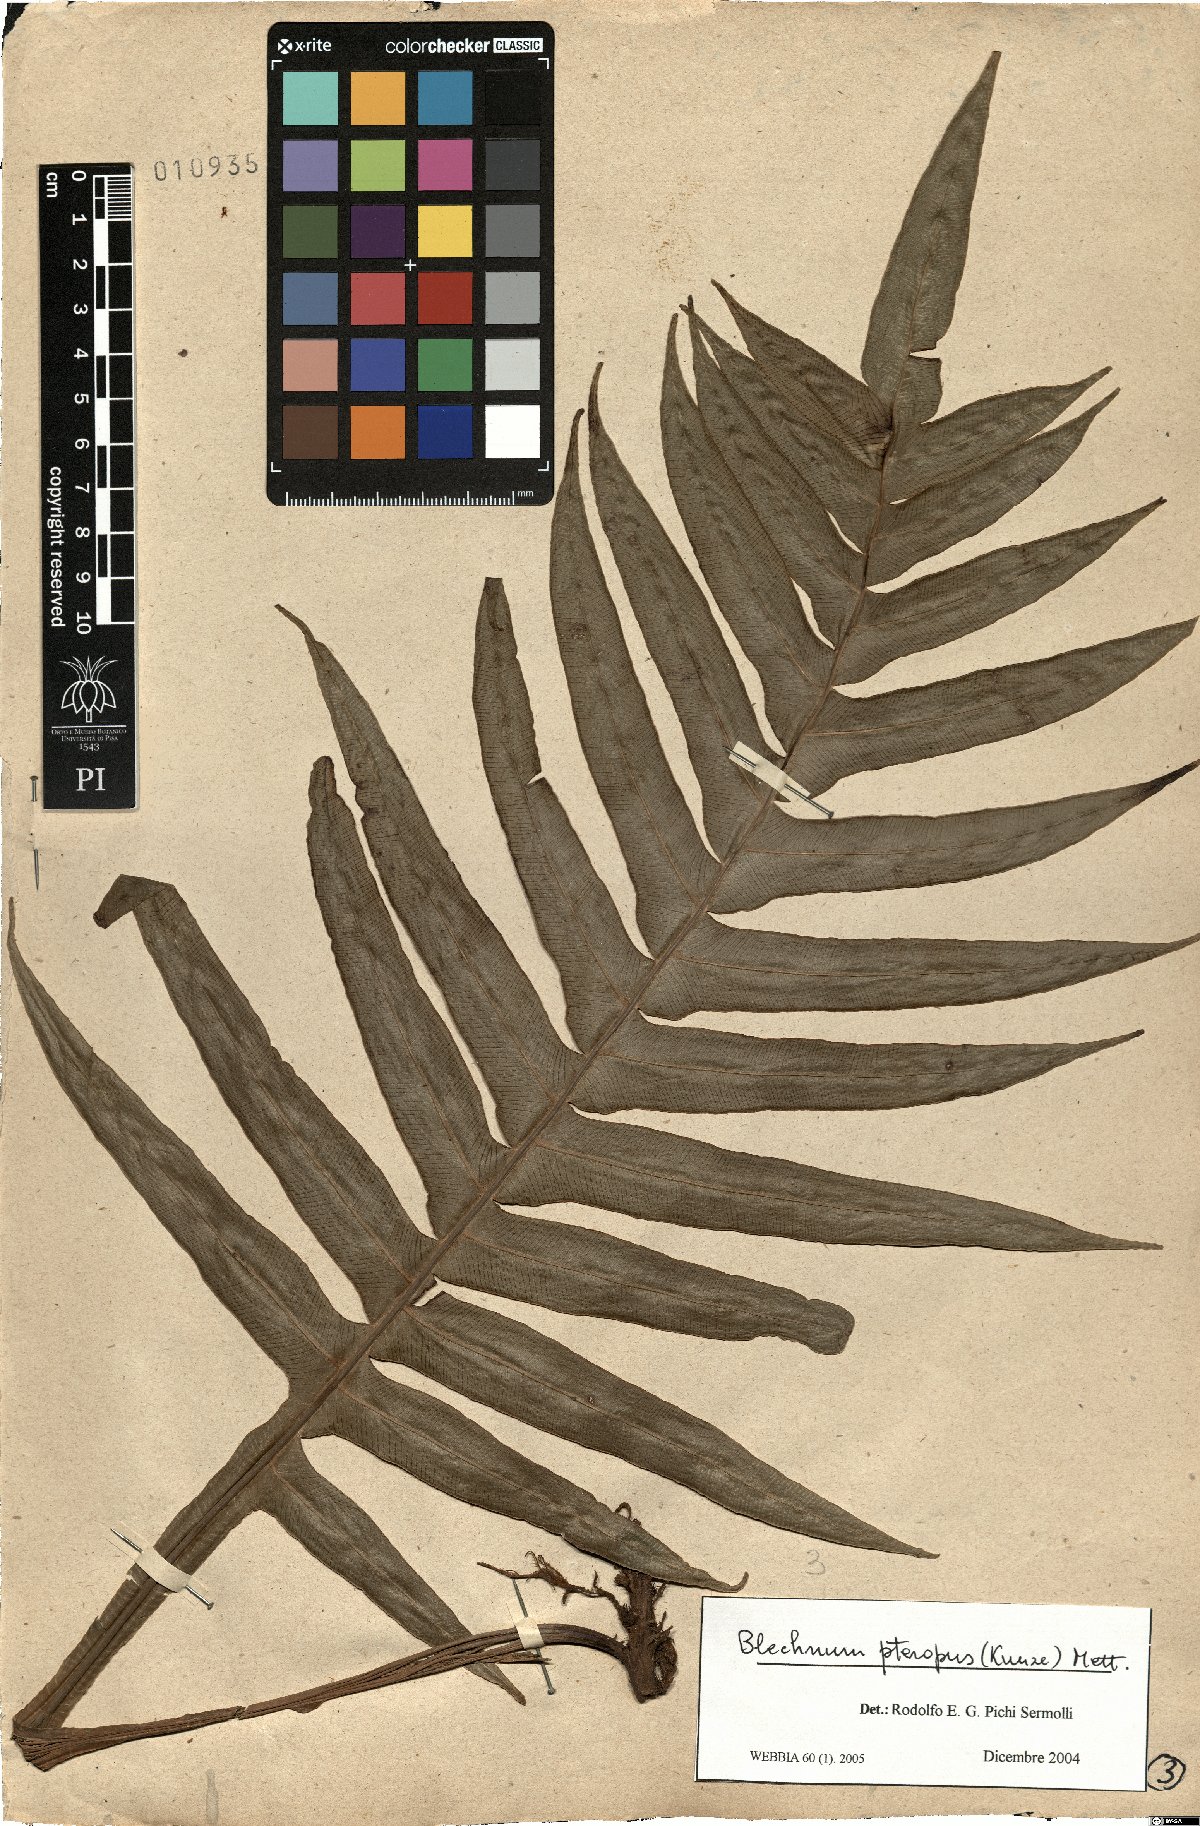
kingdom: Plantae
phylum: Tracheophyta
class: Polypodiopsida
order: Polypodiales
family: Blechnaceae
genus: Lomaridium
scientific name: Lomaridium pteropus
